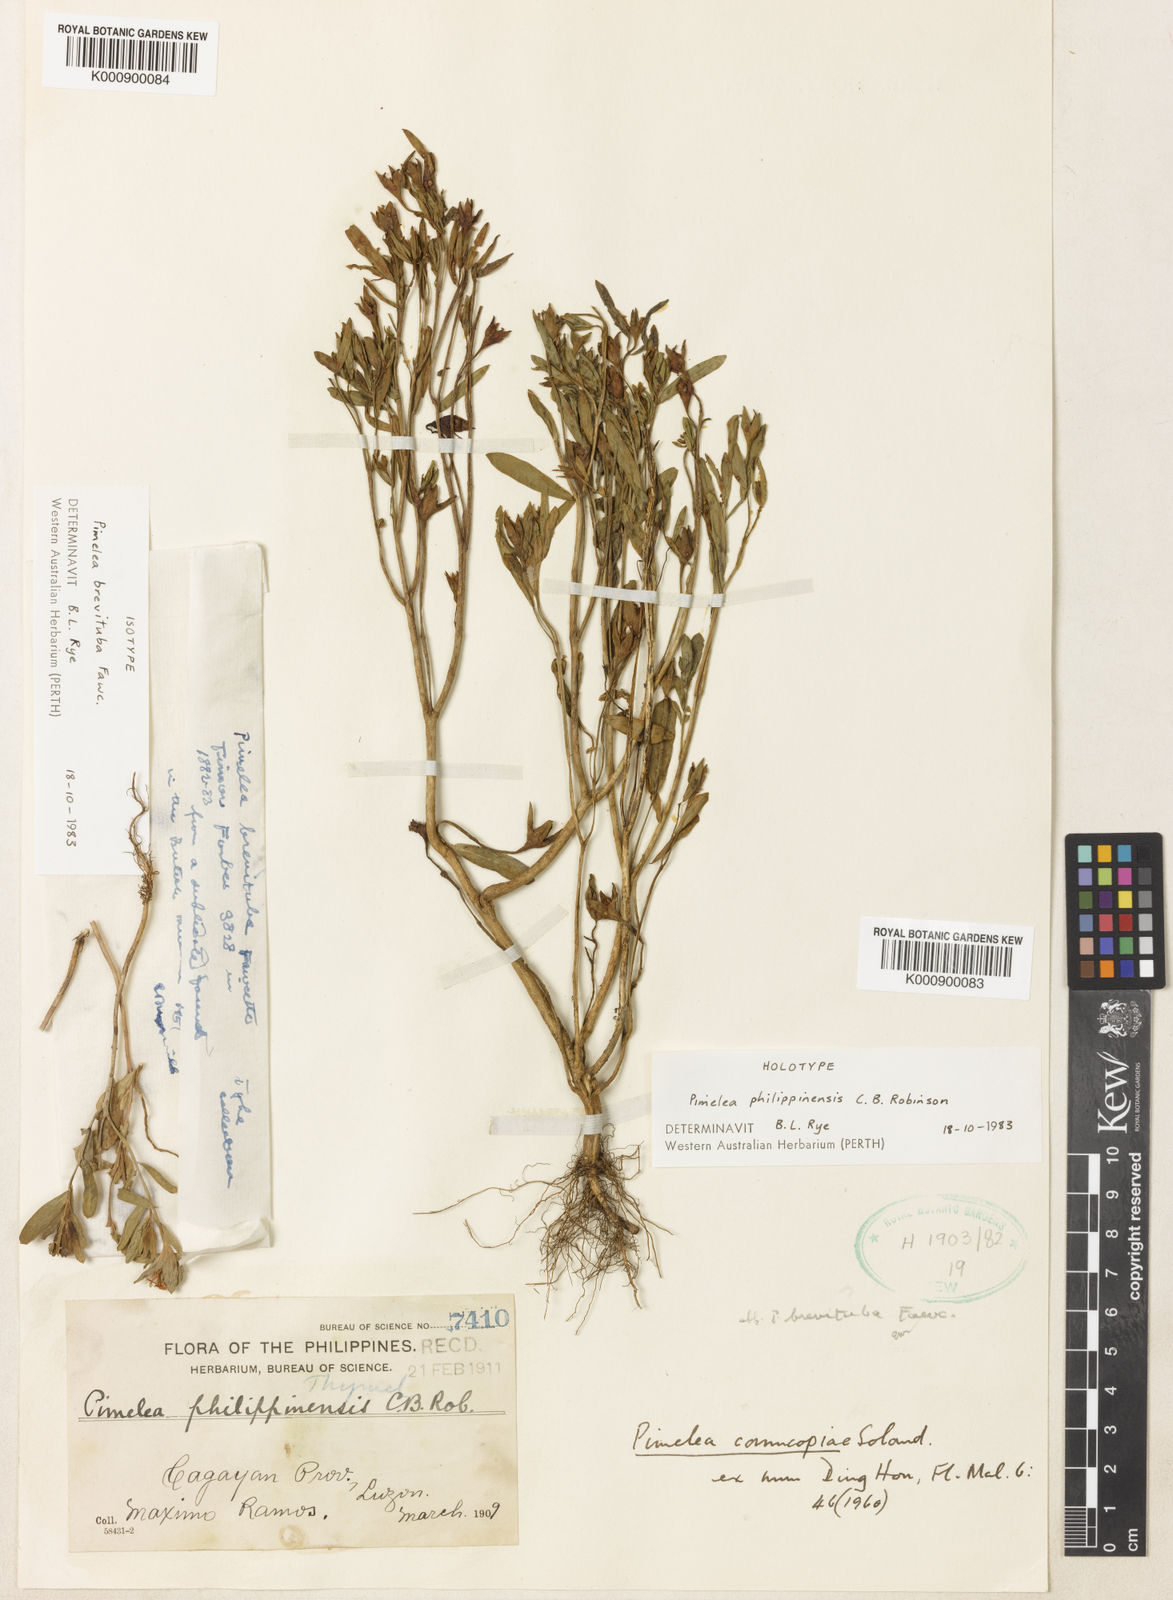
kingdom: Plantae
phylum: Tracheophyta
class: Magnoliopsida
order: Malvales
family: Thymelaeaceae
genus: Pimelea
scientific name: Pimelea cornucopiae
